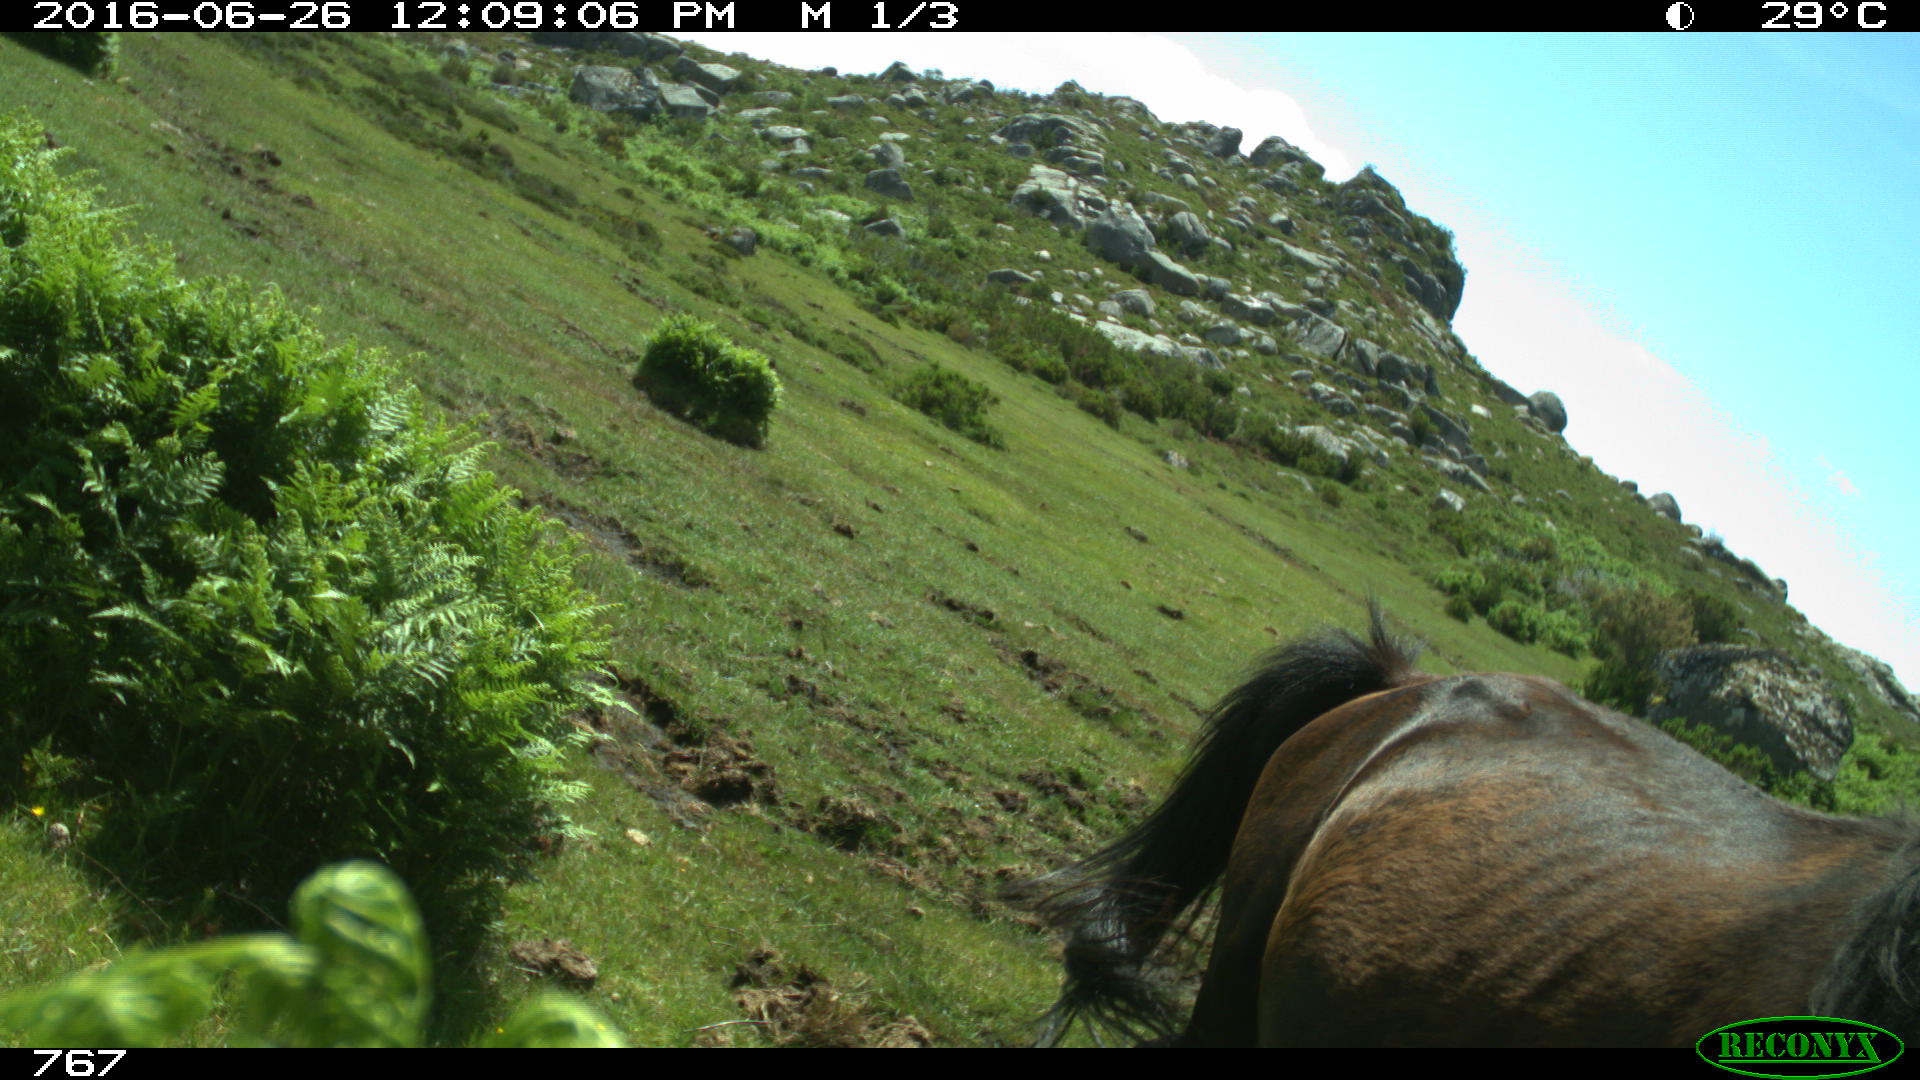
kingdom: Animalia
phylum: Chordata
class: Mammalia
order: Perissodactyla
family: Equidae
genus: Equus
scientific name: Equus caballus
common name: Horse
